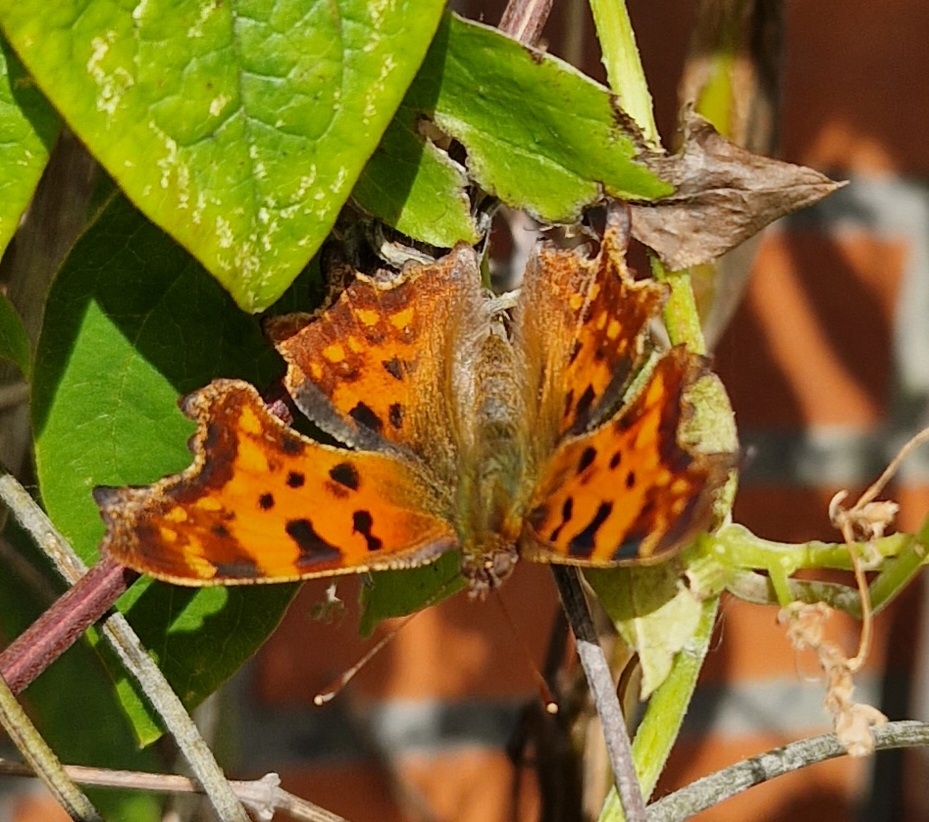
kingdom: Animalia
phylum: Arthropoda
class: Insecta
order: Lepidoptera
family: Nymphalidae
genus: Polygonia
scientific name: Polygonia c-album
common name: Det hvide C
